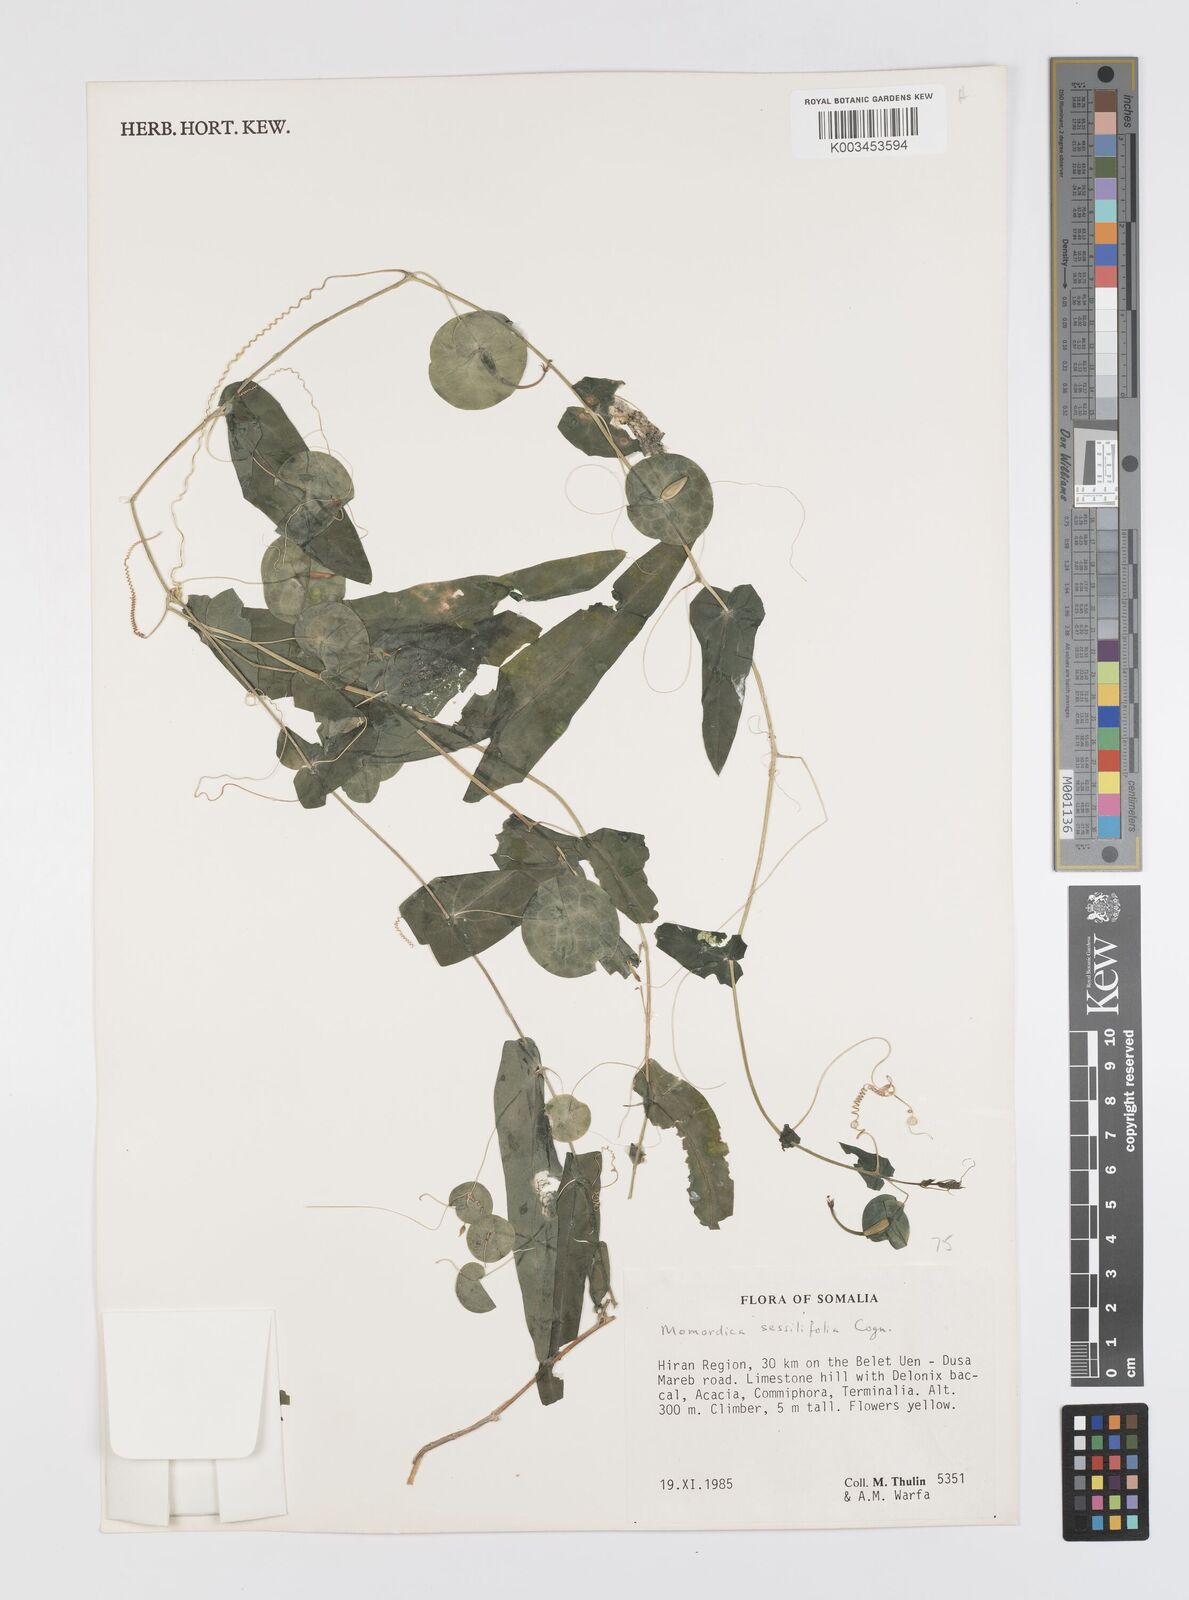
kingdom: Plantae
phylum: Tracheophyta
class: Magnoliopsida
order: Cucurbitales
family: Cucurbitaceae
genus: Momordica
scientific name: Momordica sessilifolia
